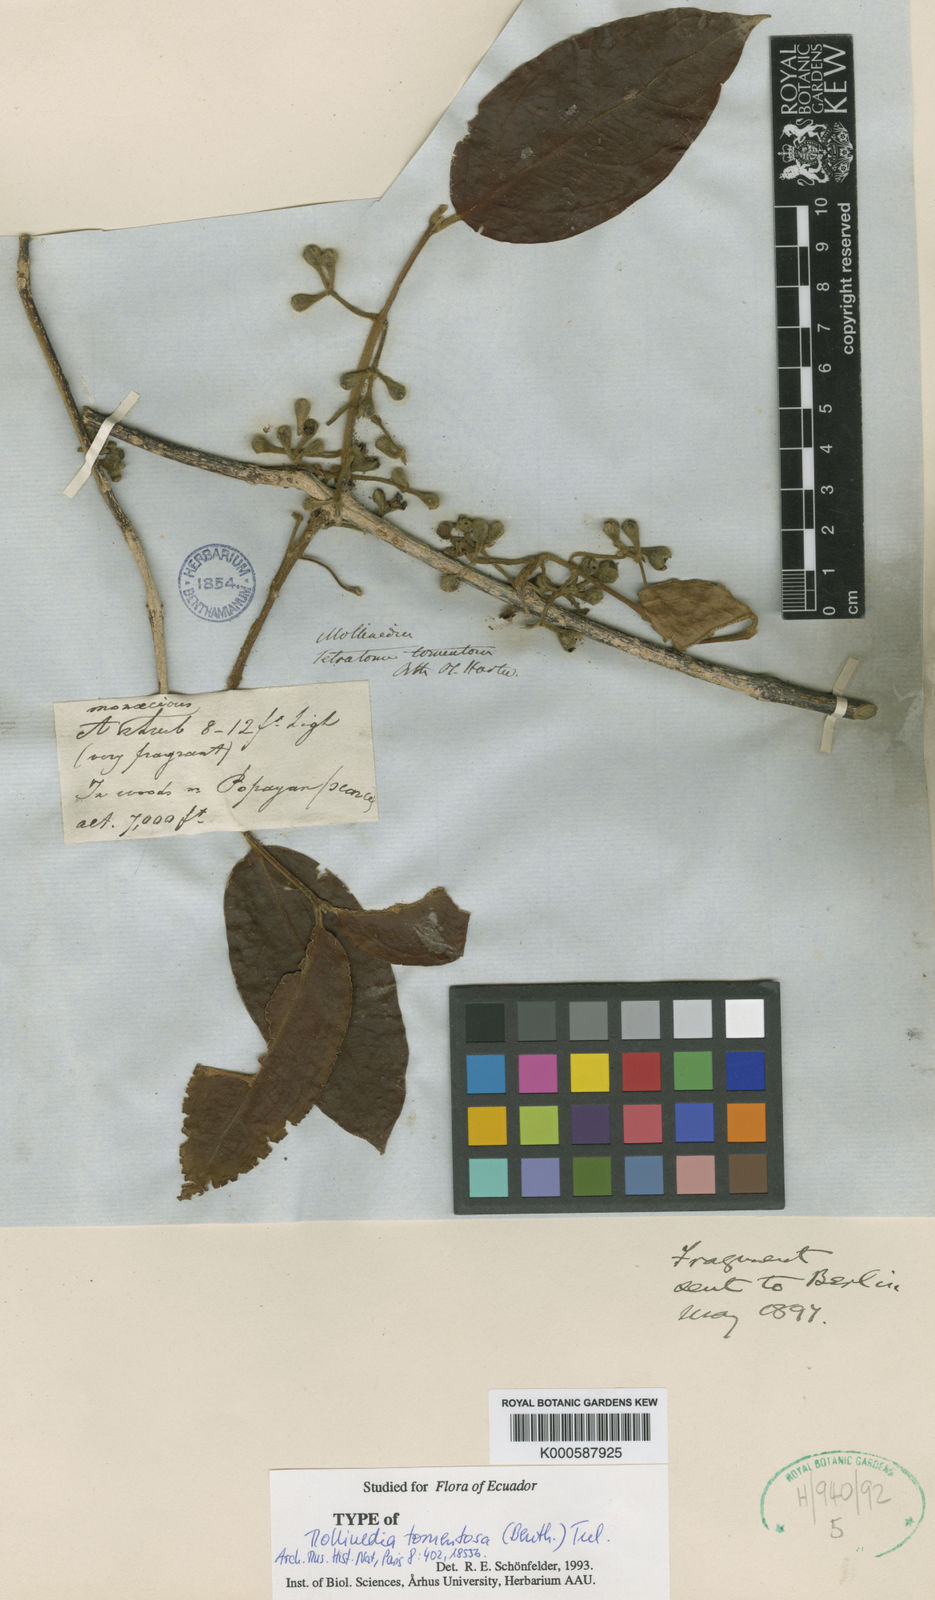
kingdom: Plantae
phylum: Tracheophyta
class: Magnoliopsida
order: Laurales
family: Monimiaceae
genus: Mollinedia
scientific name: Mollinedia tomentosa
